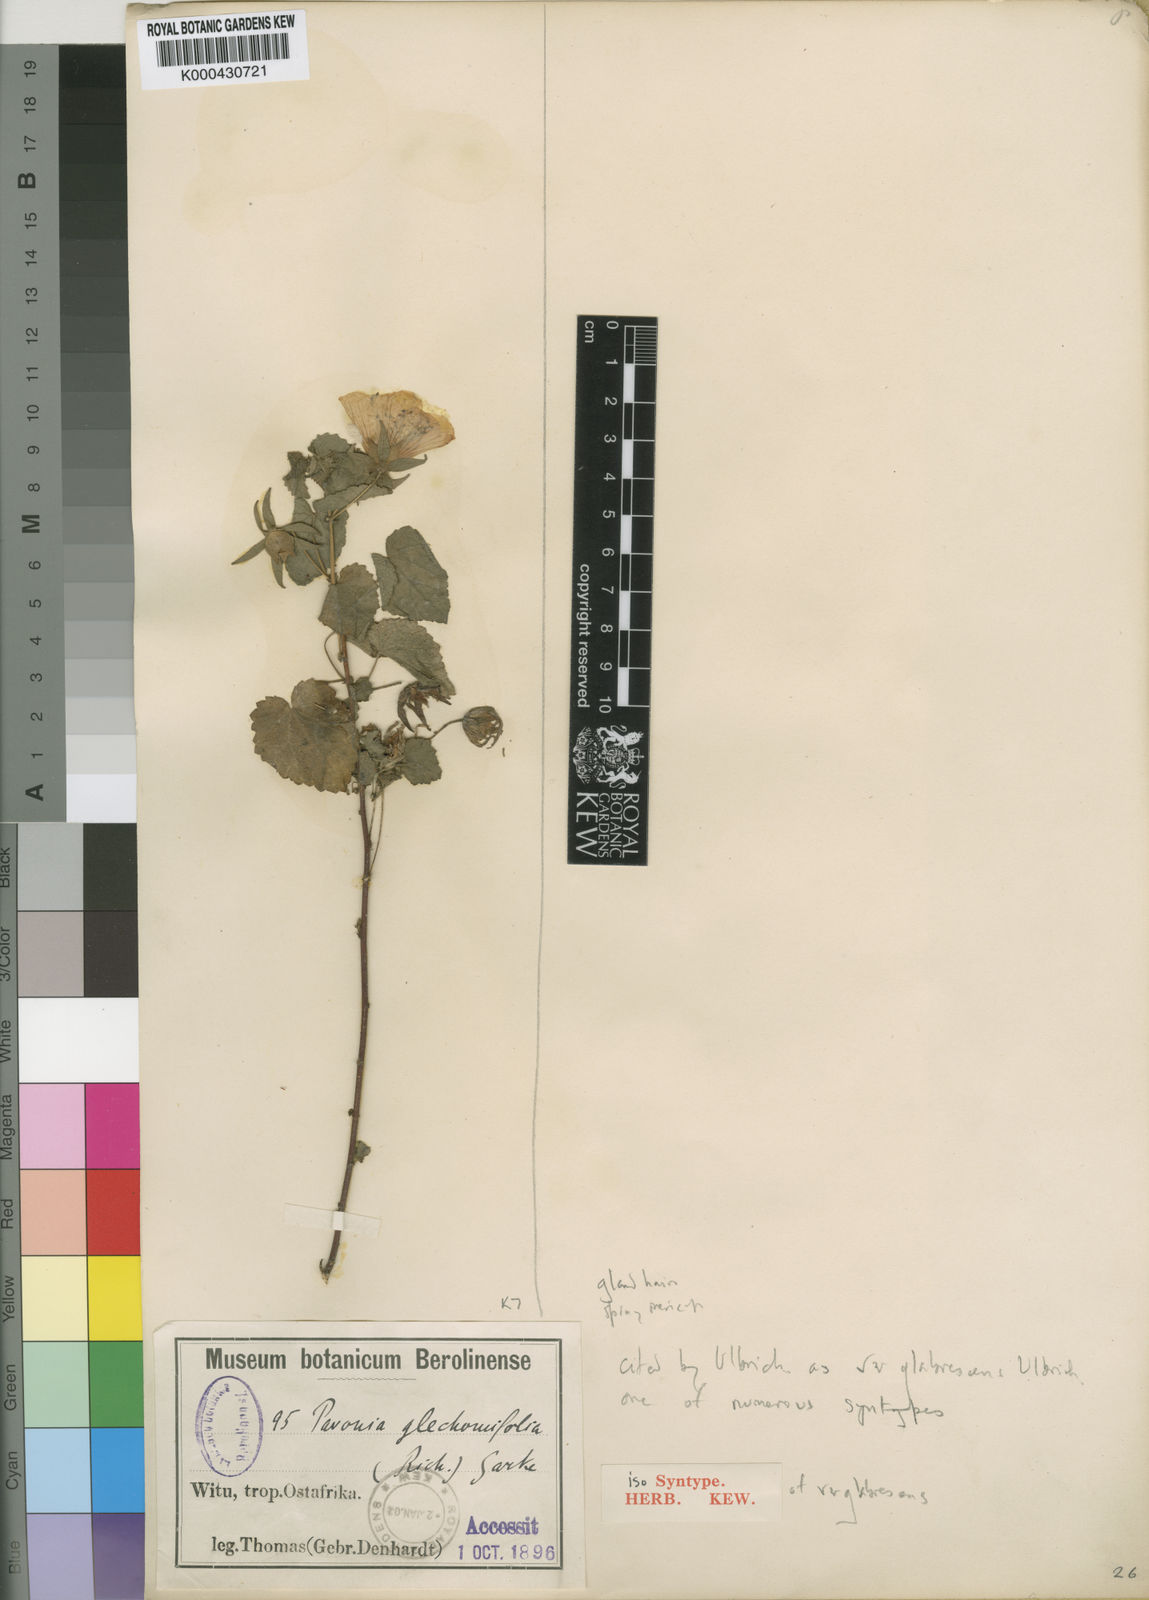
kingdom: Plantae
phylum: Tracheophyta
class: Magnoliopsida
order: Malvales
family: Malvaceae
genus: Pavonia
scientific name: Pavonia flavoferruginea
